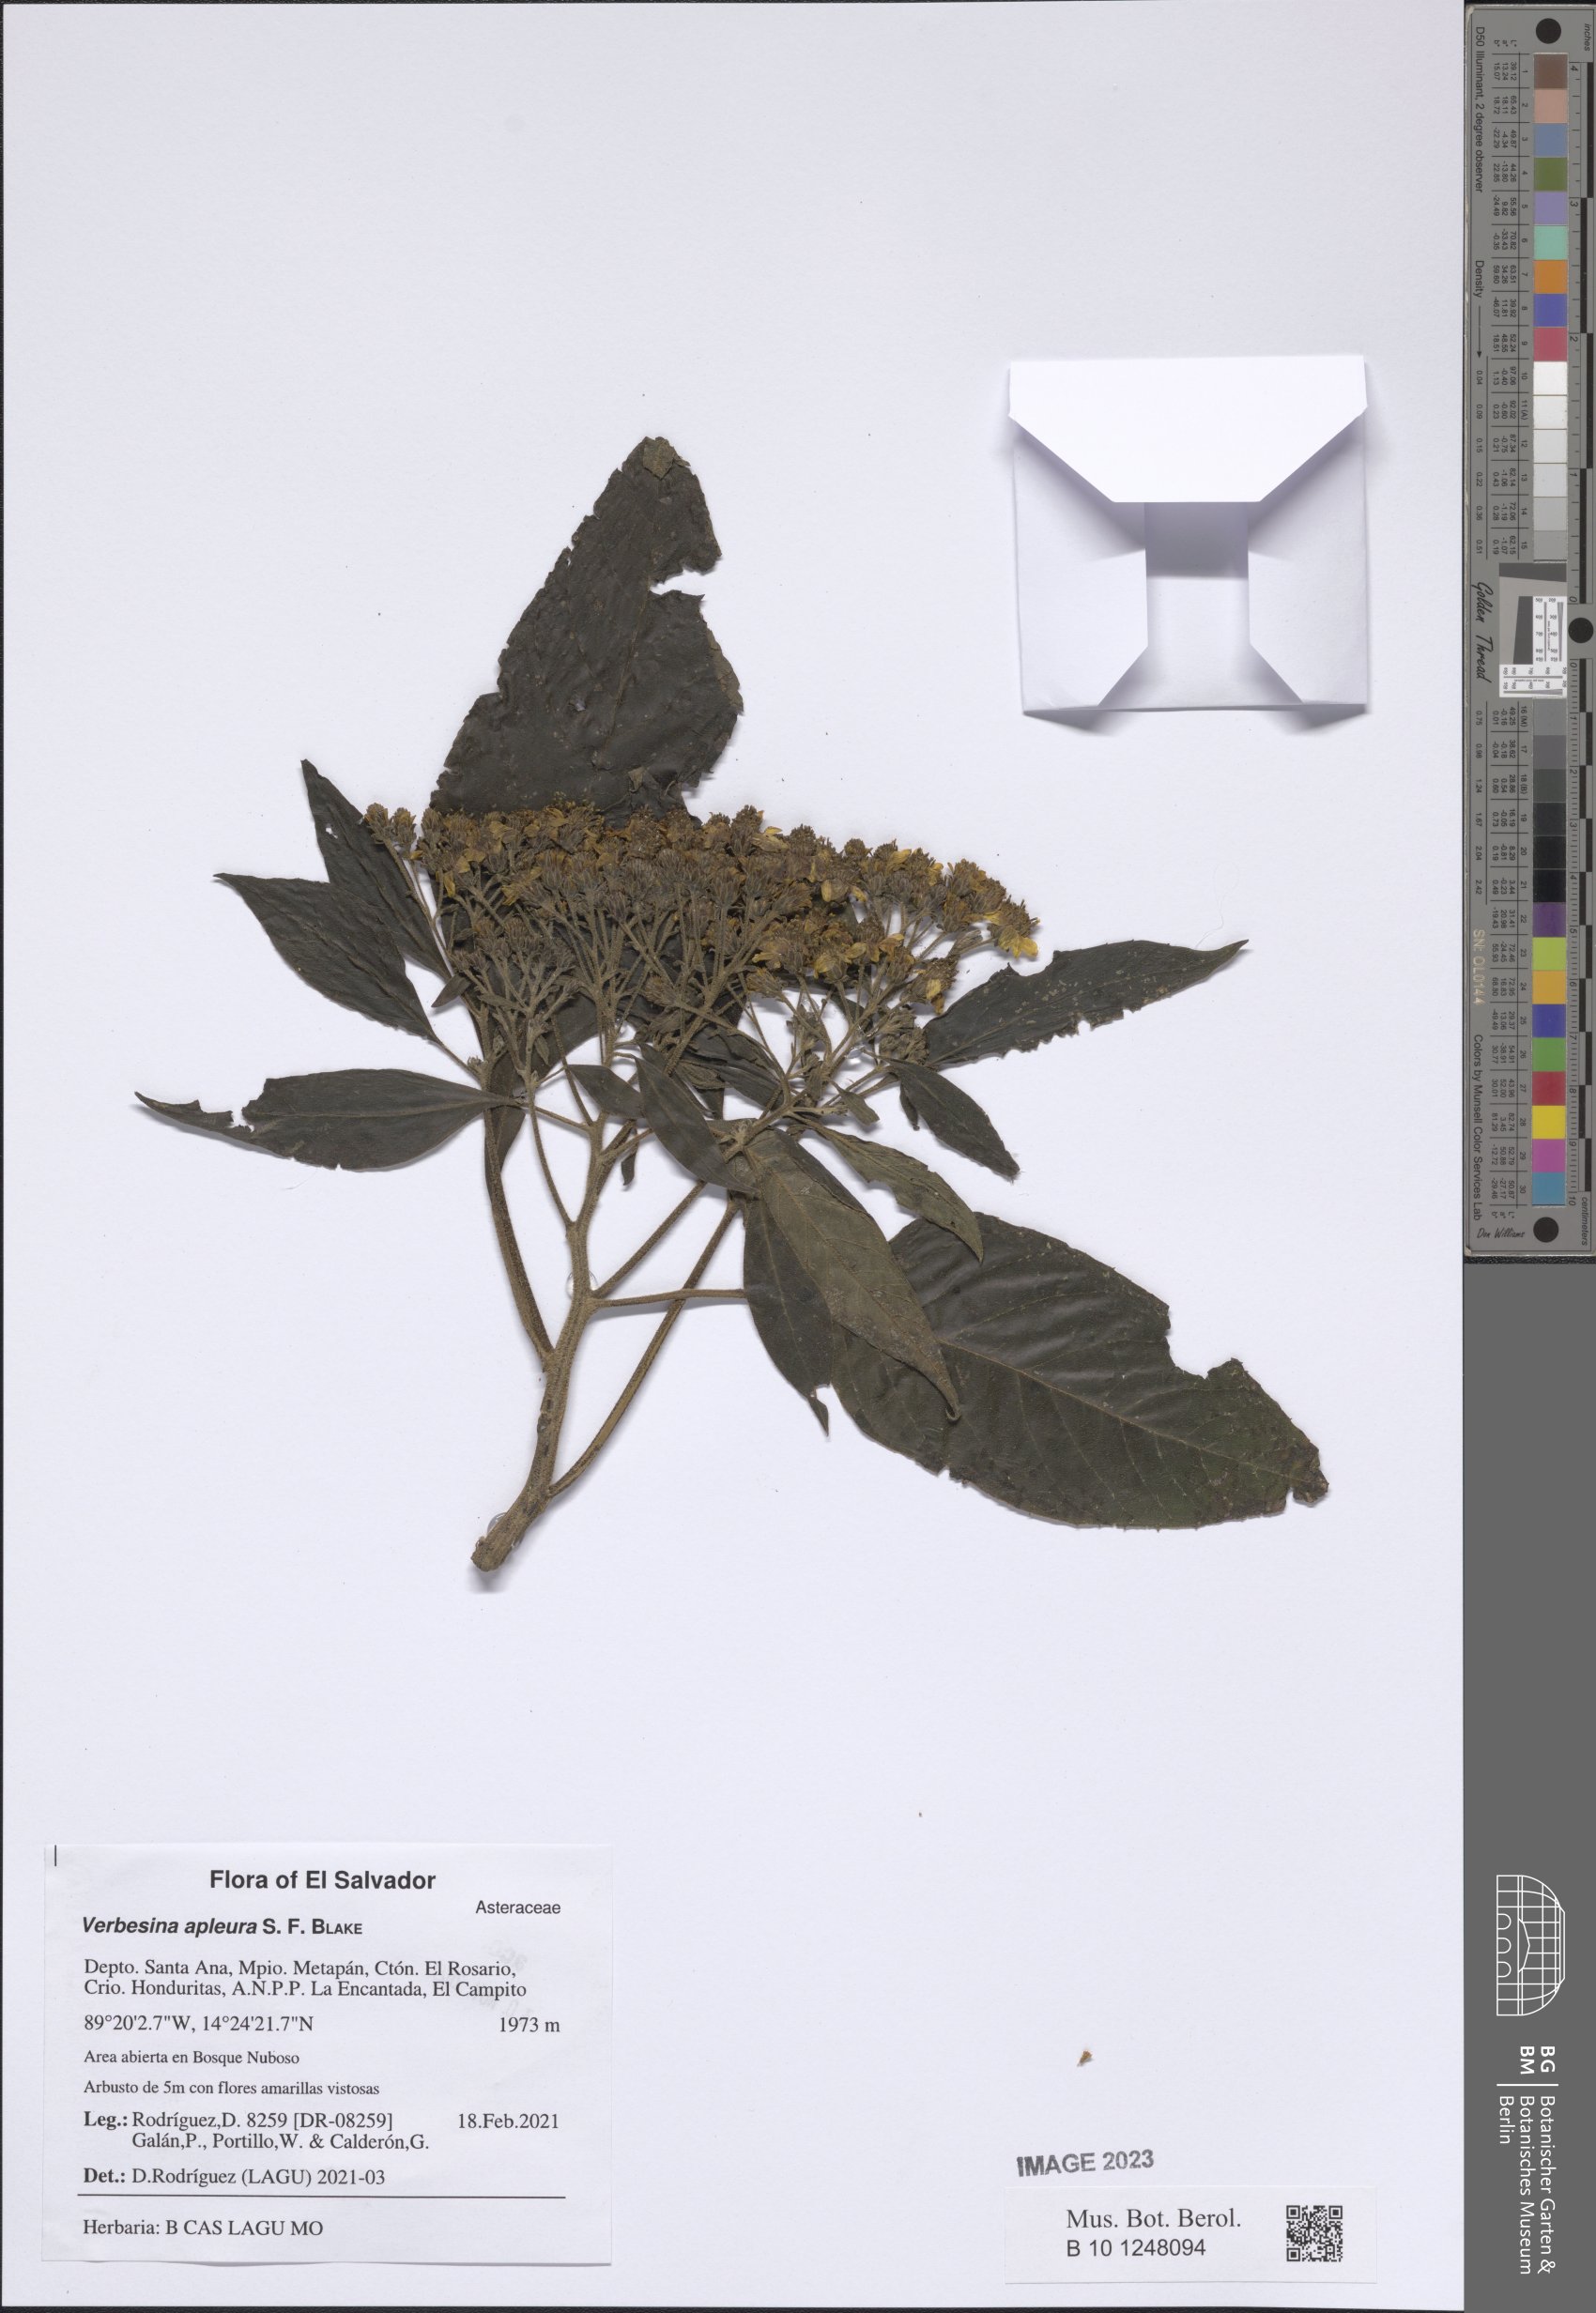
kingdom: Plantae
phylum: Tracheophyta
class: Magnoliopsida
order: Asterales
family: Asteraceae
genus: Verbesina
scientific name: Verbesina apleura
